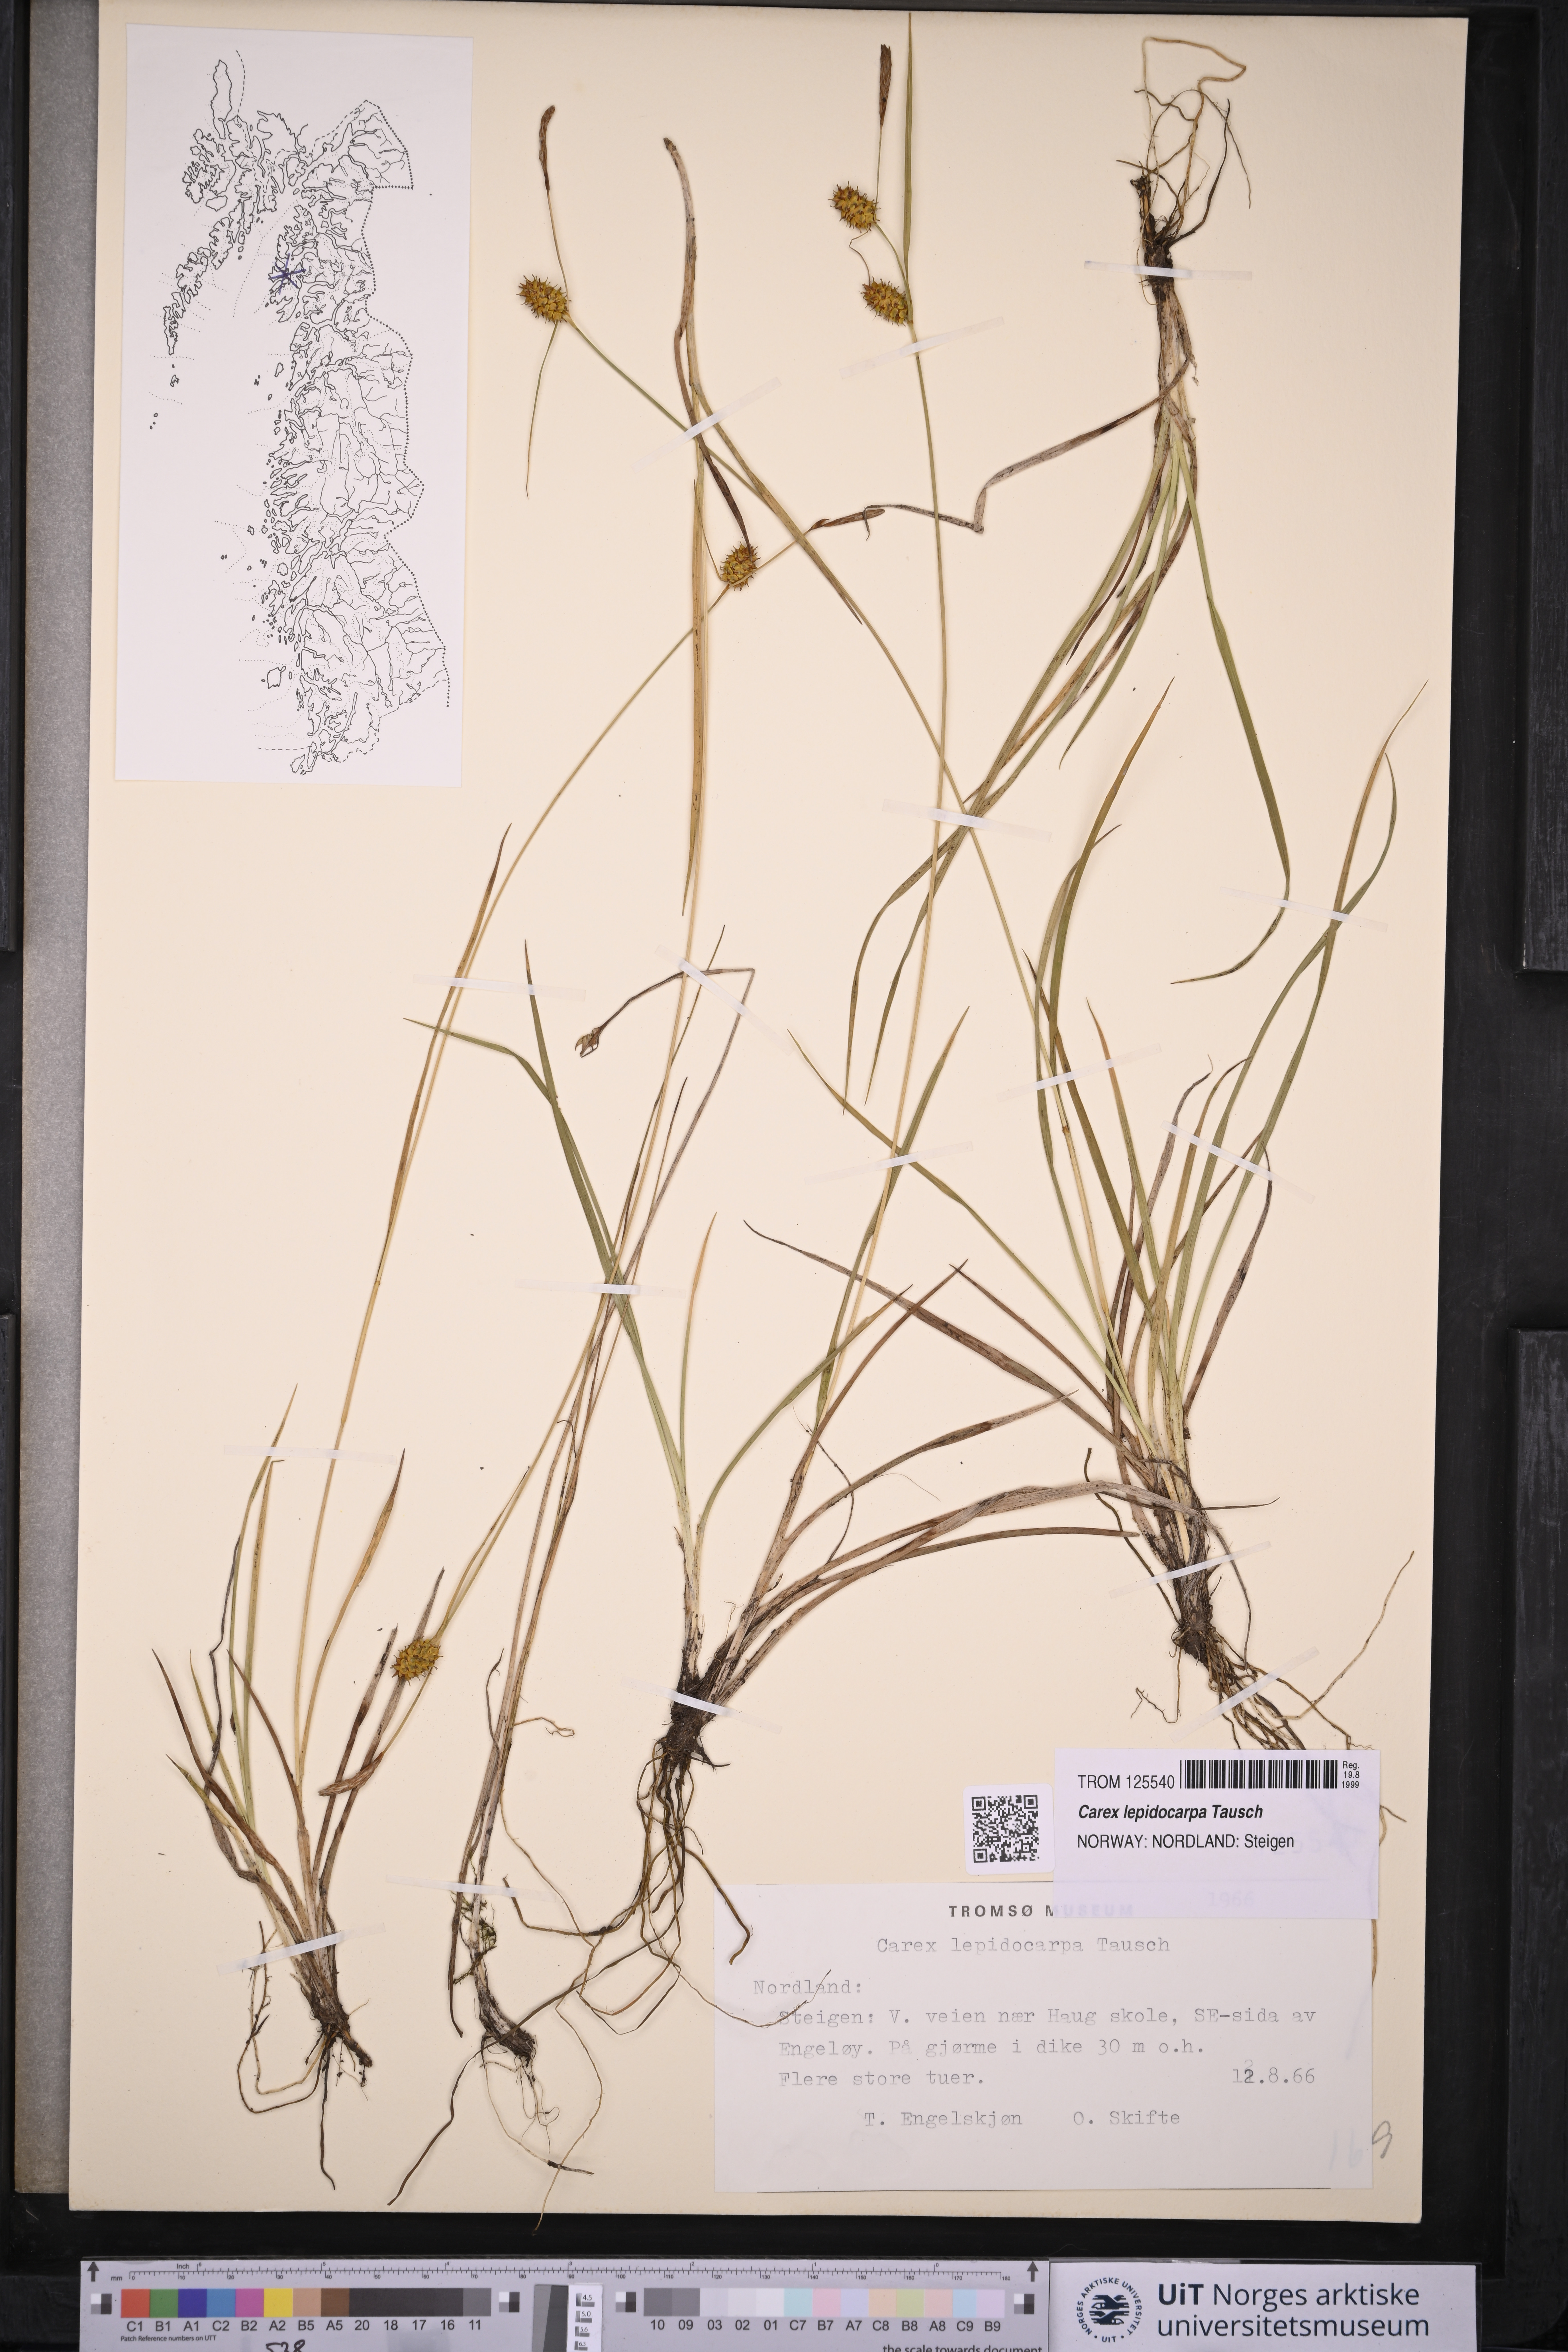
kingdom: Plantae
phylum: Tracheophyta
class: Liliopsida
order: Poales
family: Cyperaceae
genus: Carex
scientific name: Carex lepidocarpa
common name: Long-stalked yellow-sedge
